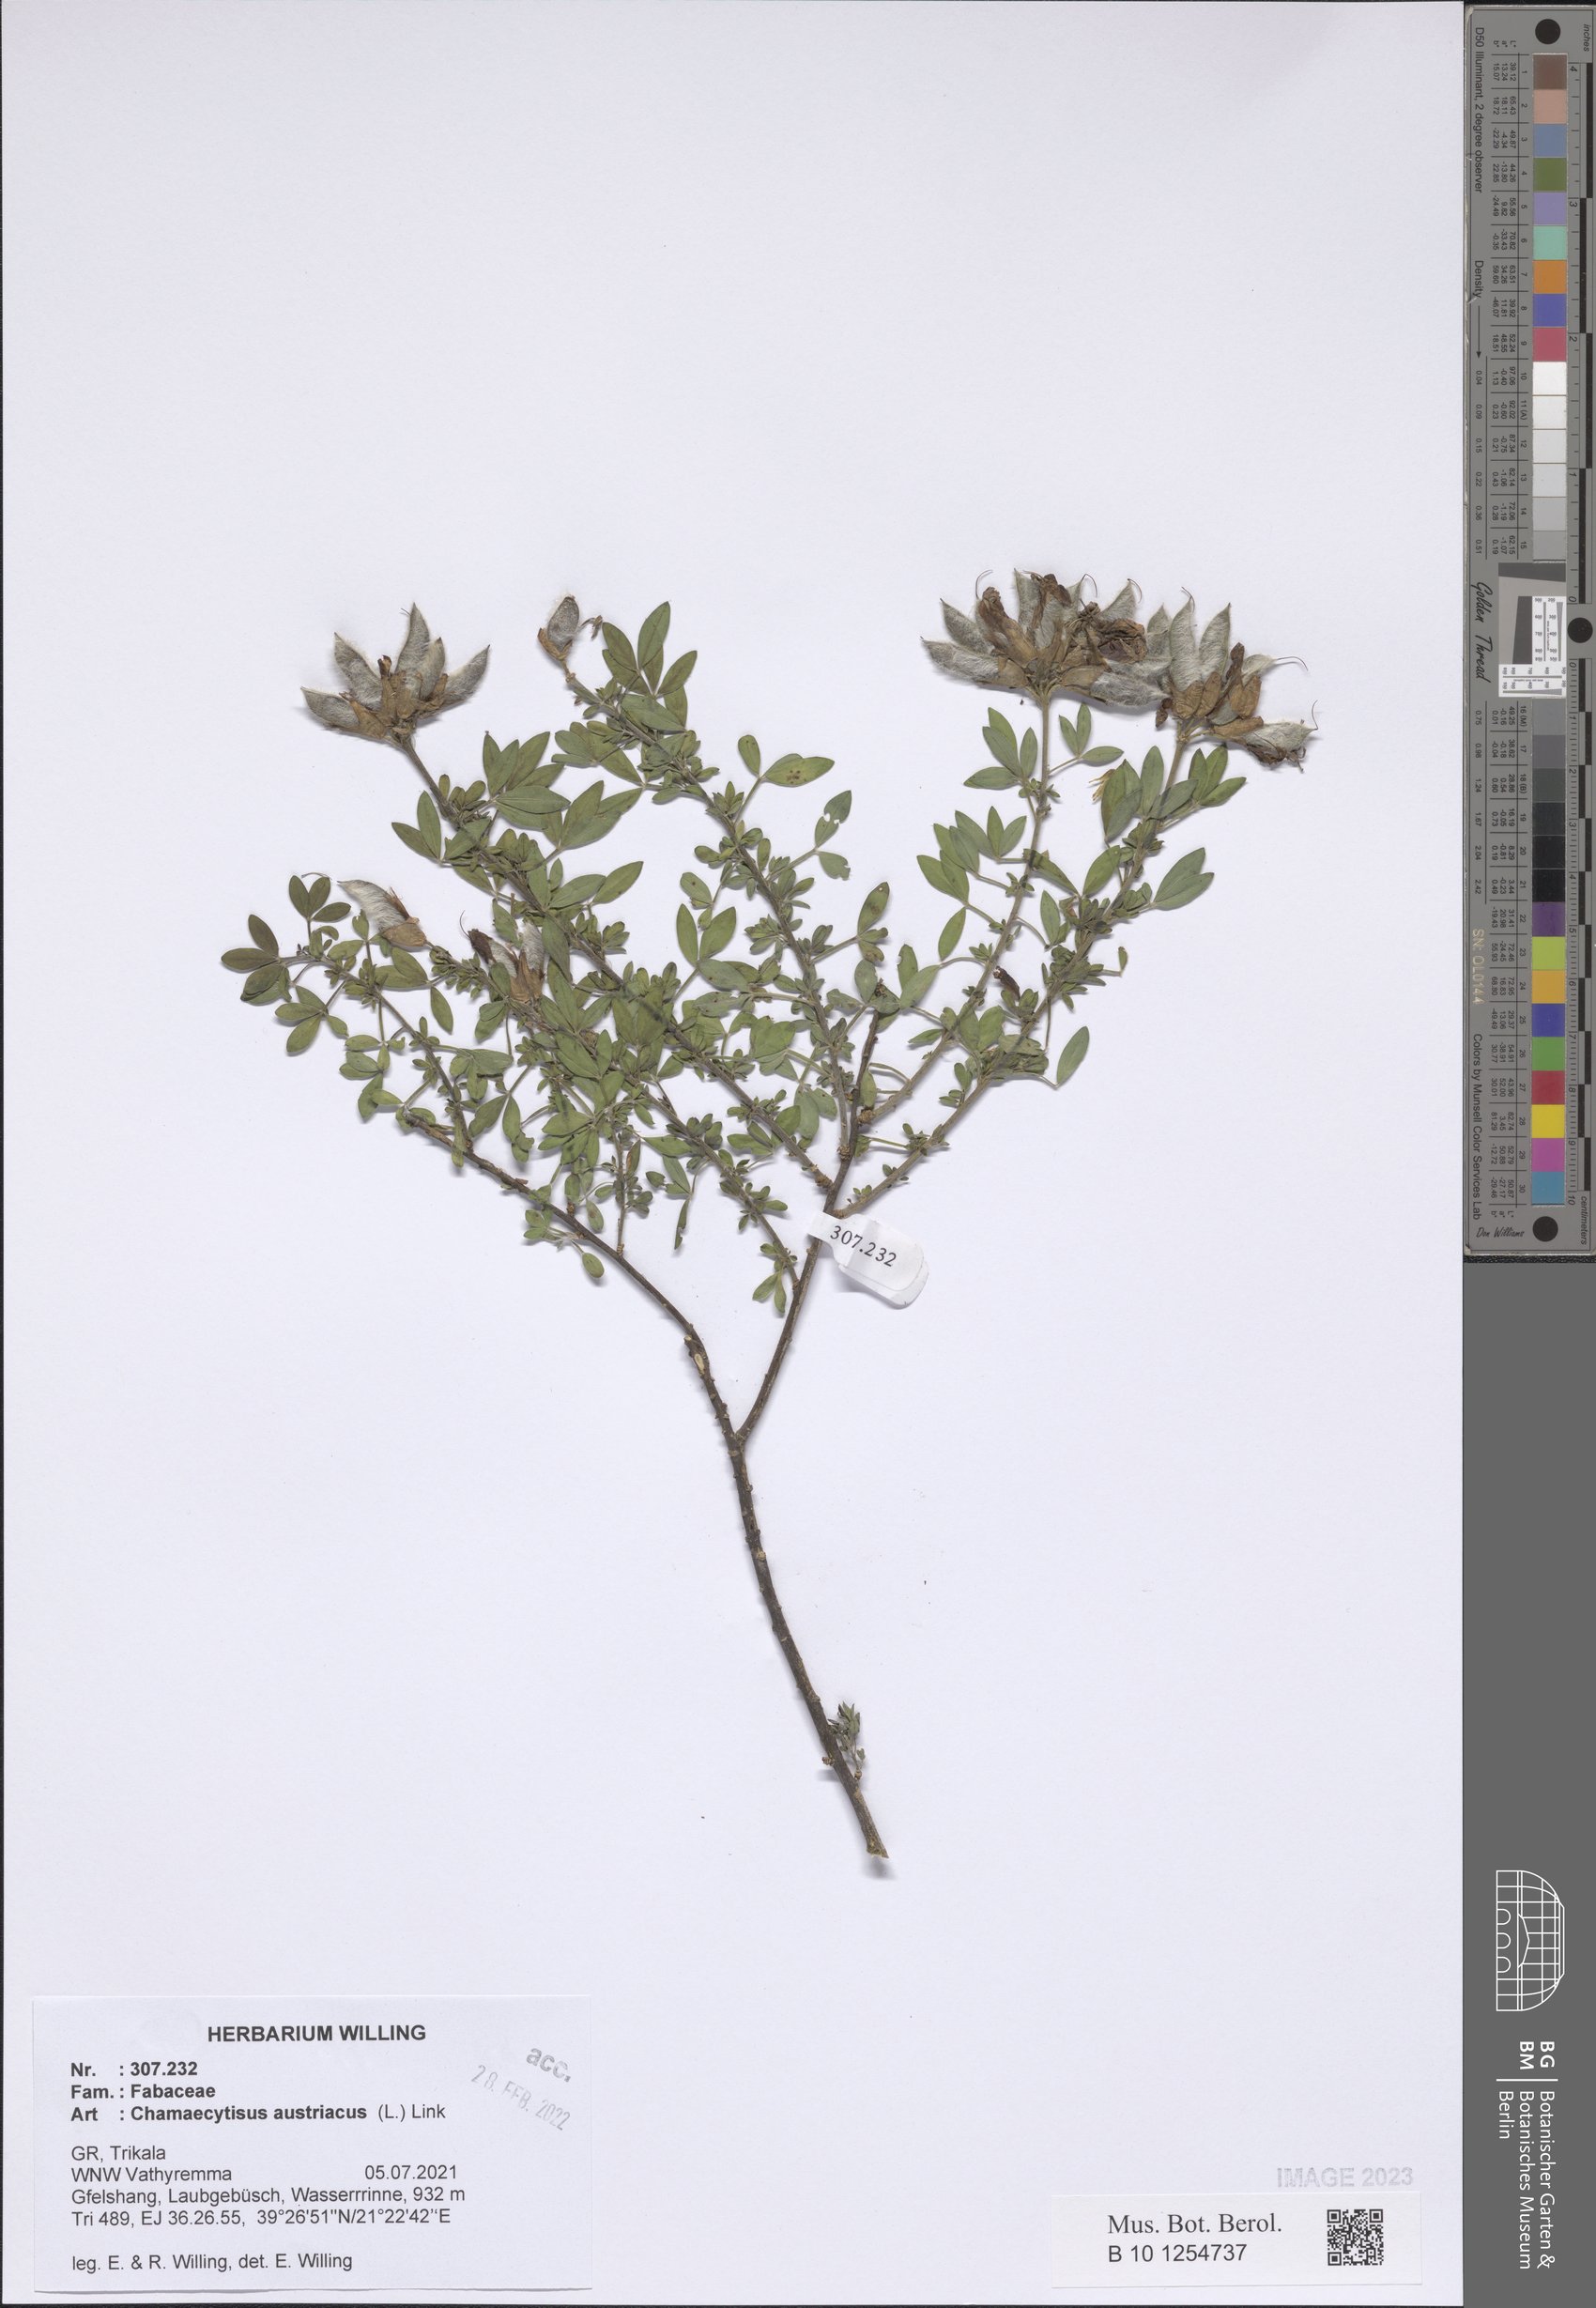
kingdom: Plantae
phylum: Tracheophyta
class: Magnoliopsida
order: Fabales
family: Fabaceae
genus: Chamaecytisus
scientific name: Chamaecytisus austriacus
